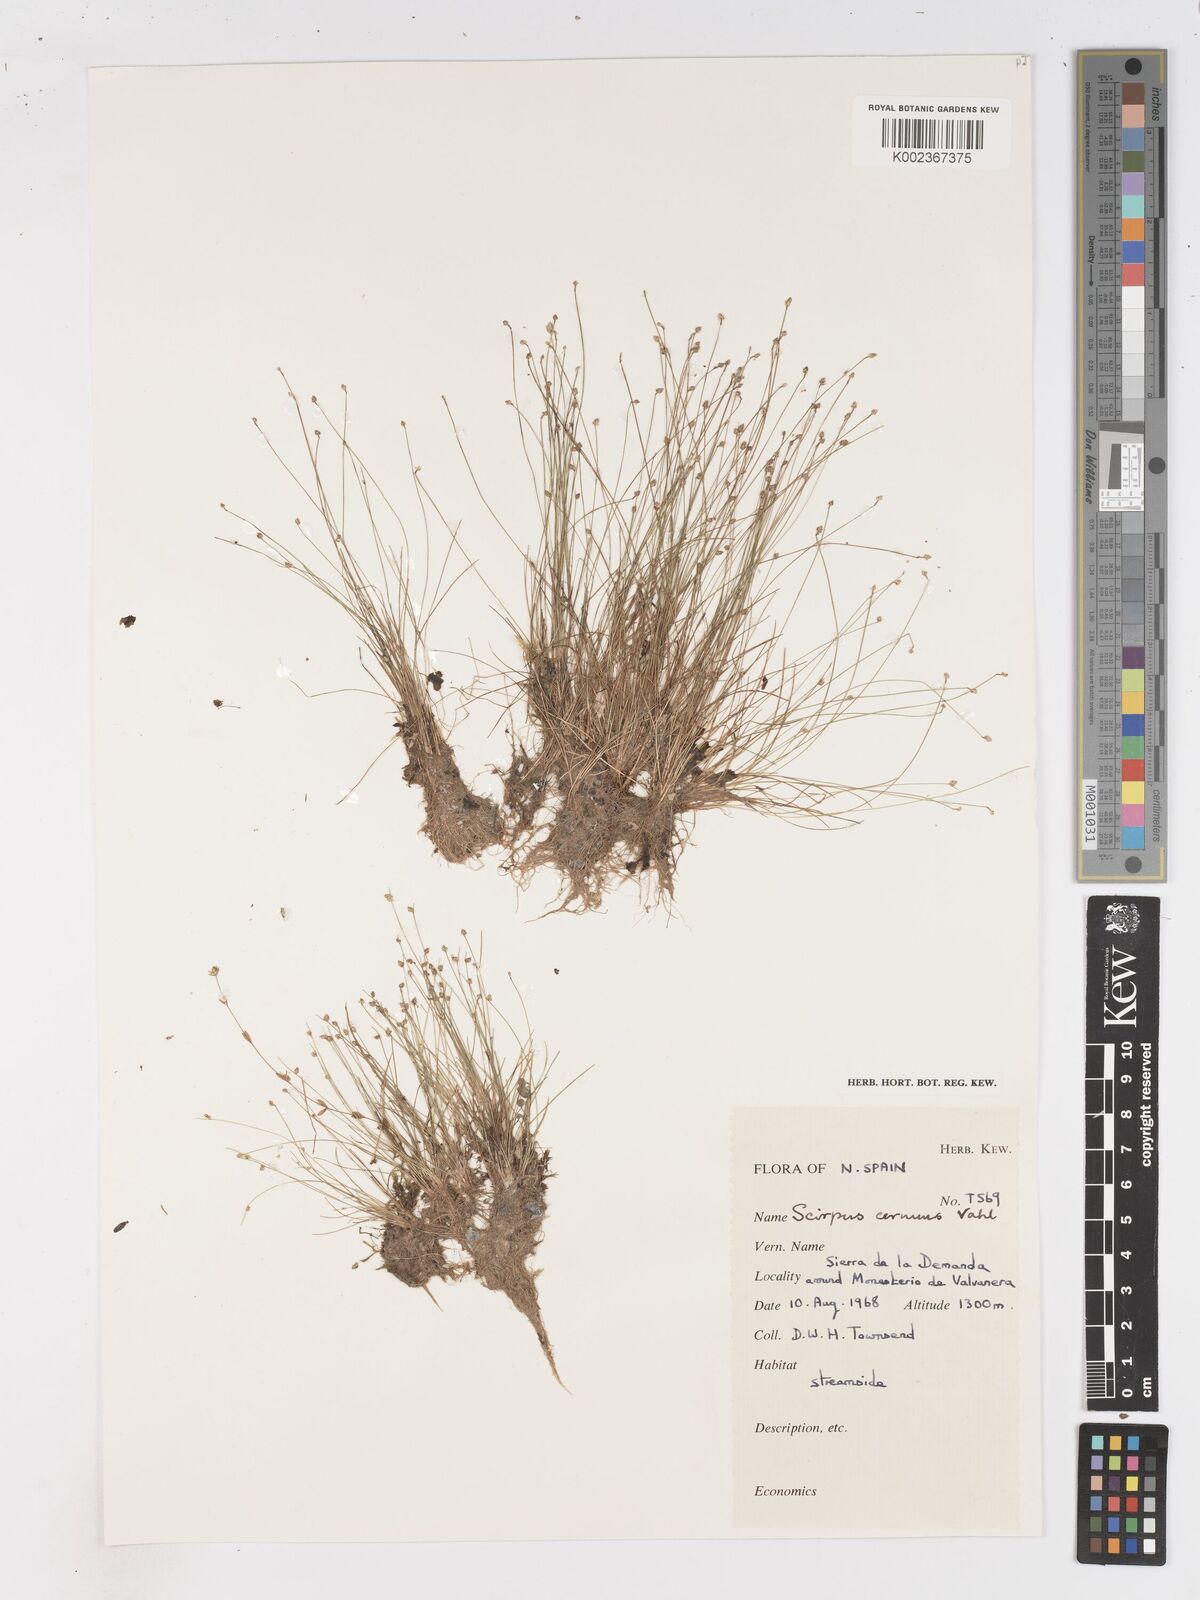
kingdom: Plantae
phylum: Tracheophyta
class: Liliopsida
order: Poales
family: Cyperaceae
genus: Isolepis
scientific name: Isolepis cernua
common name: Slender club-rush
